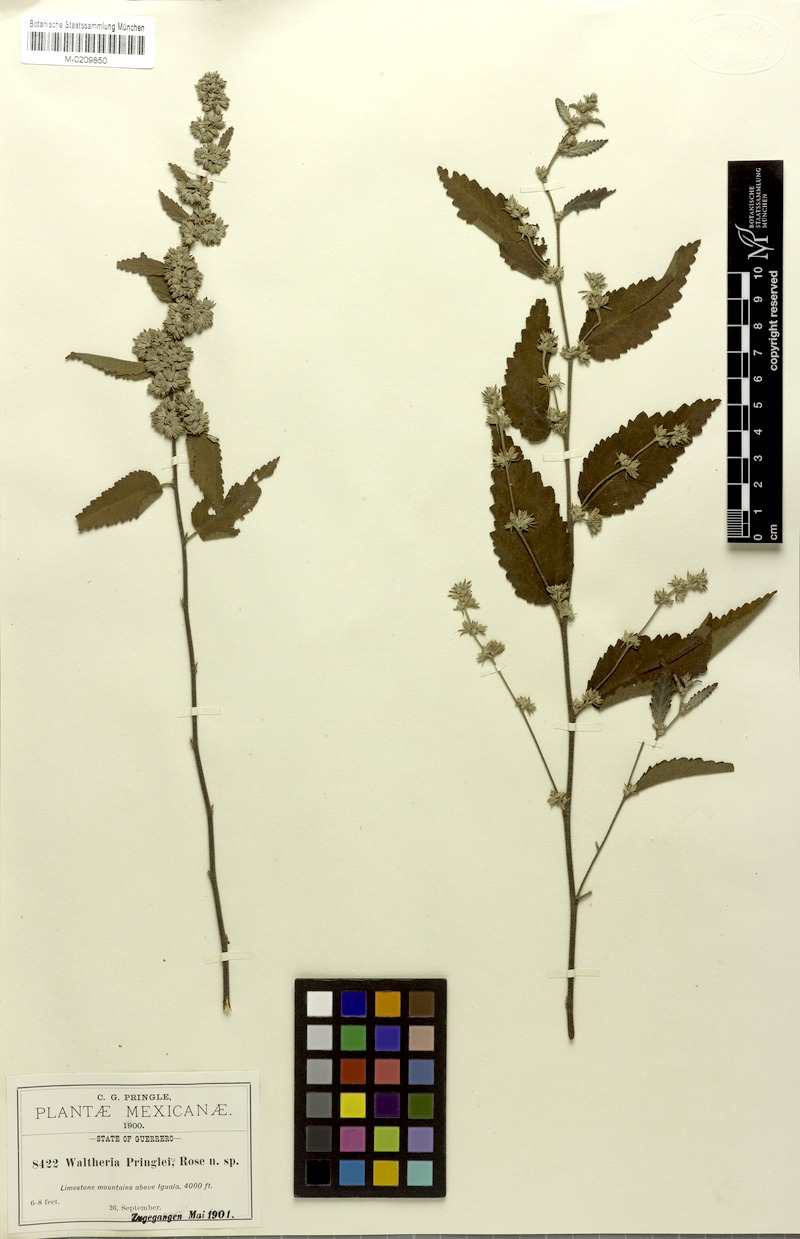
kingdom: Plantae
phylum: Tracheophyta
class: Magnoliopsida
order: Malvales
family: Malvaceae
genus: Waltheria
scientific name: Waltheria pringlei
